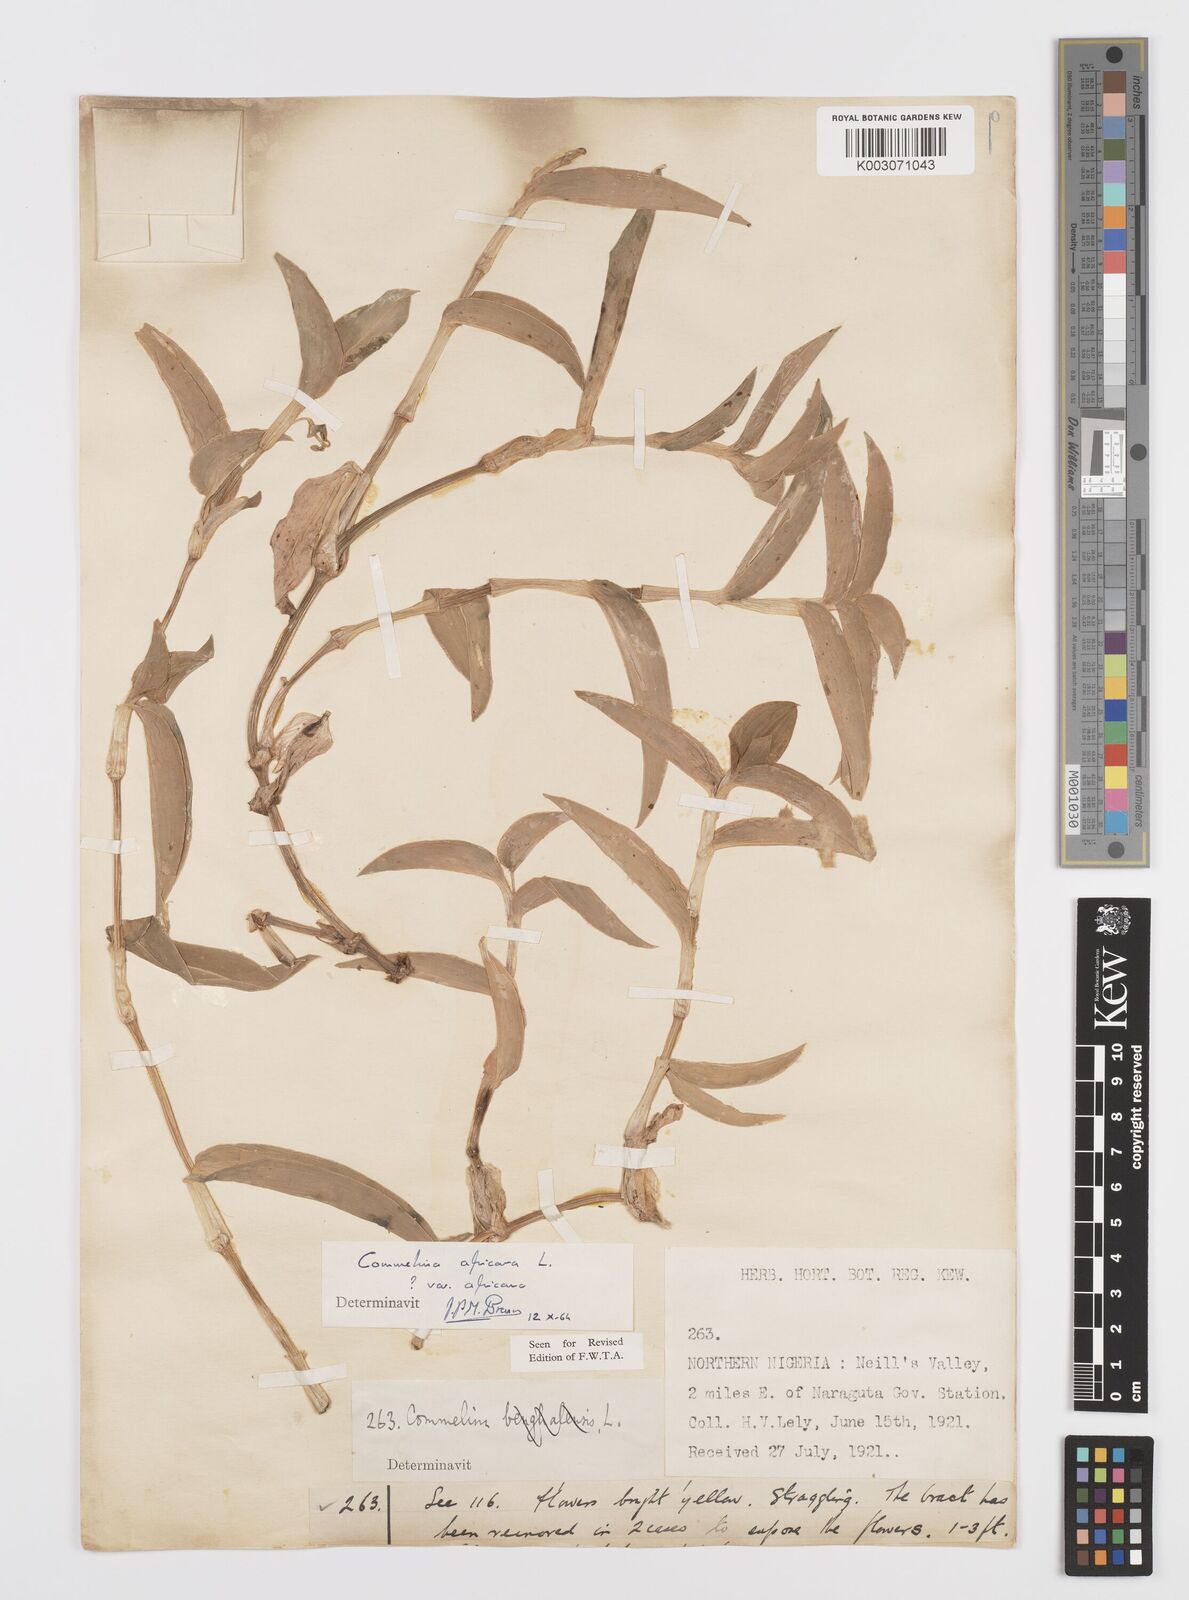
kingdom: Plantae
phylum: Tracheophyta
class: Liliopsida
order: Commelinales
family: Commelinaceae
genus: Commelina
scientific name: Commelina africana
